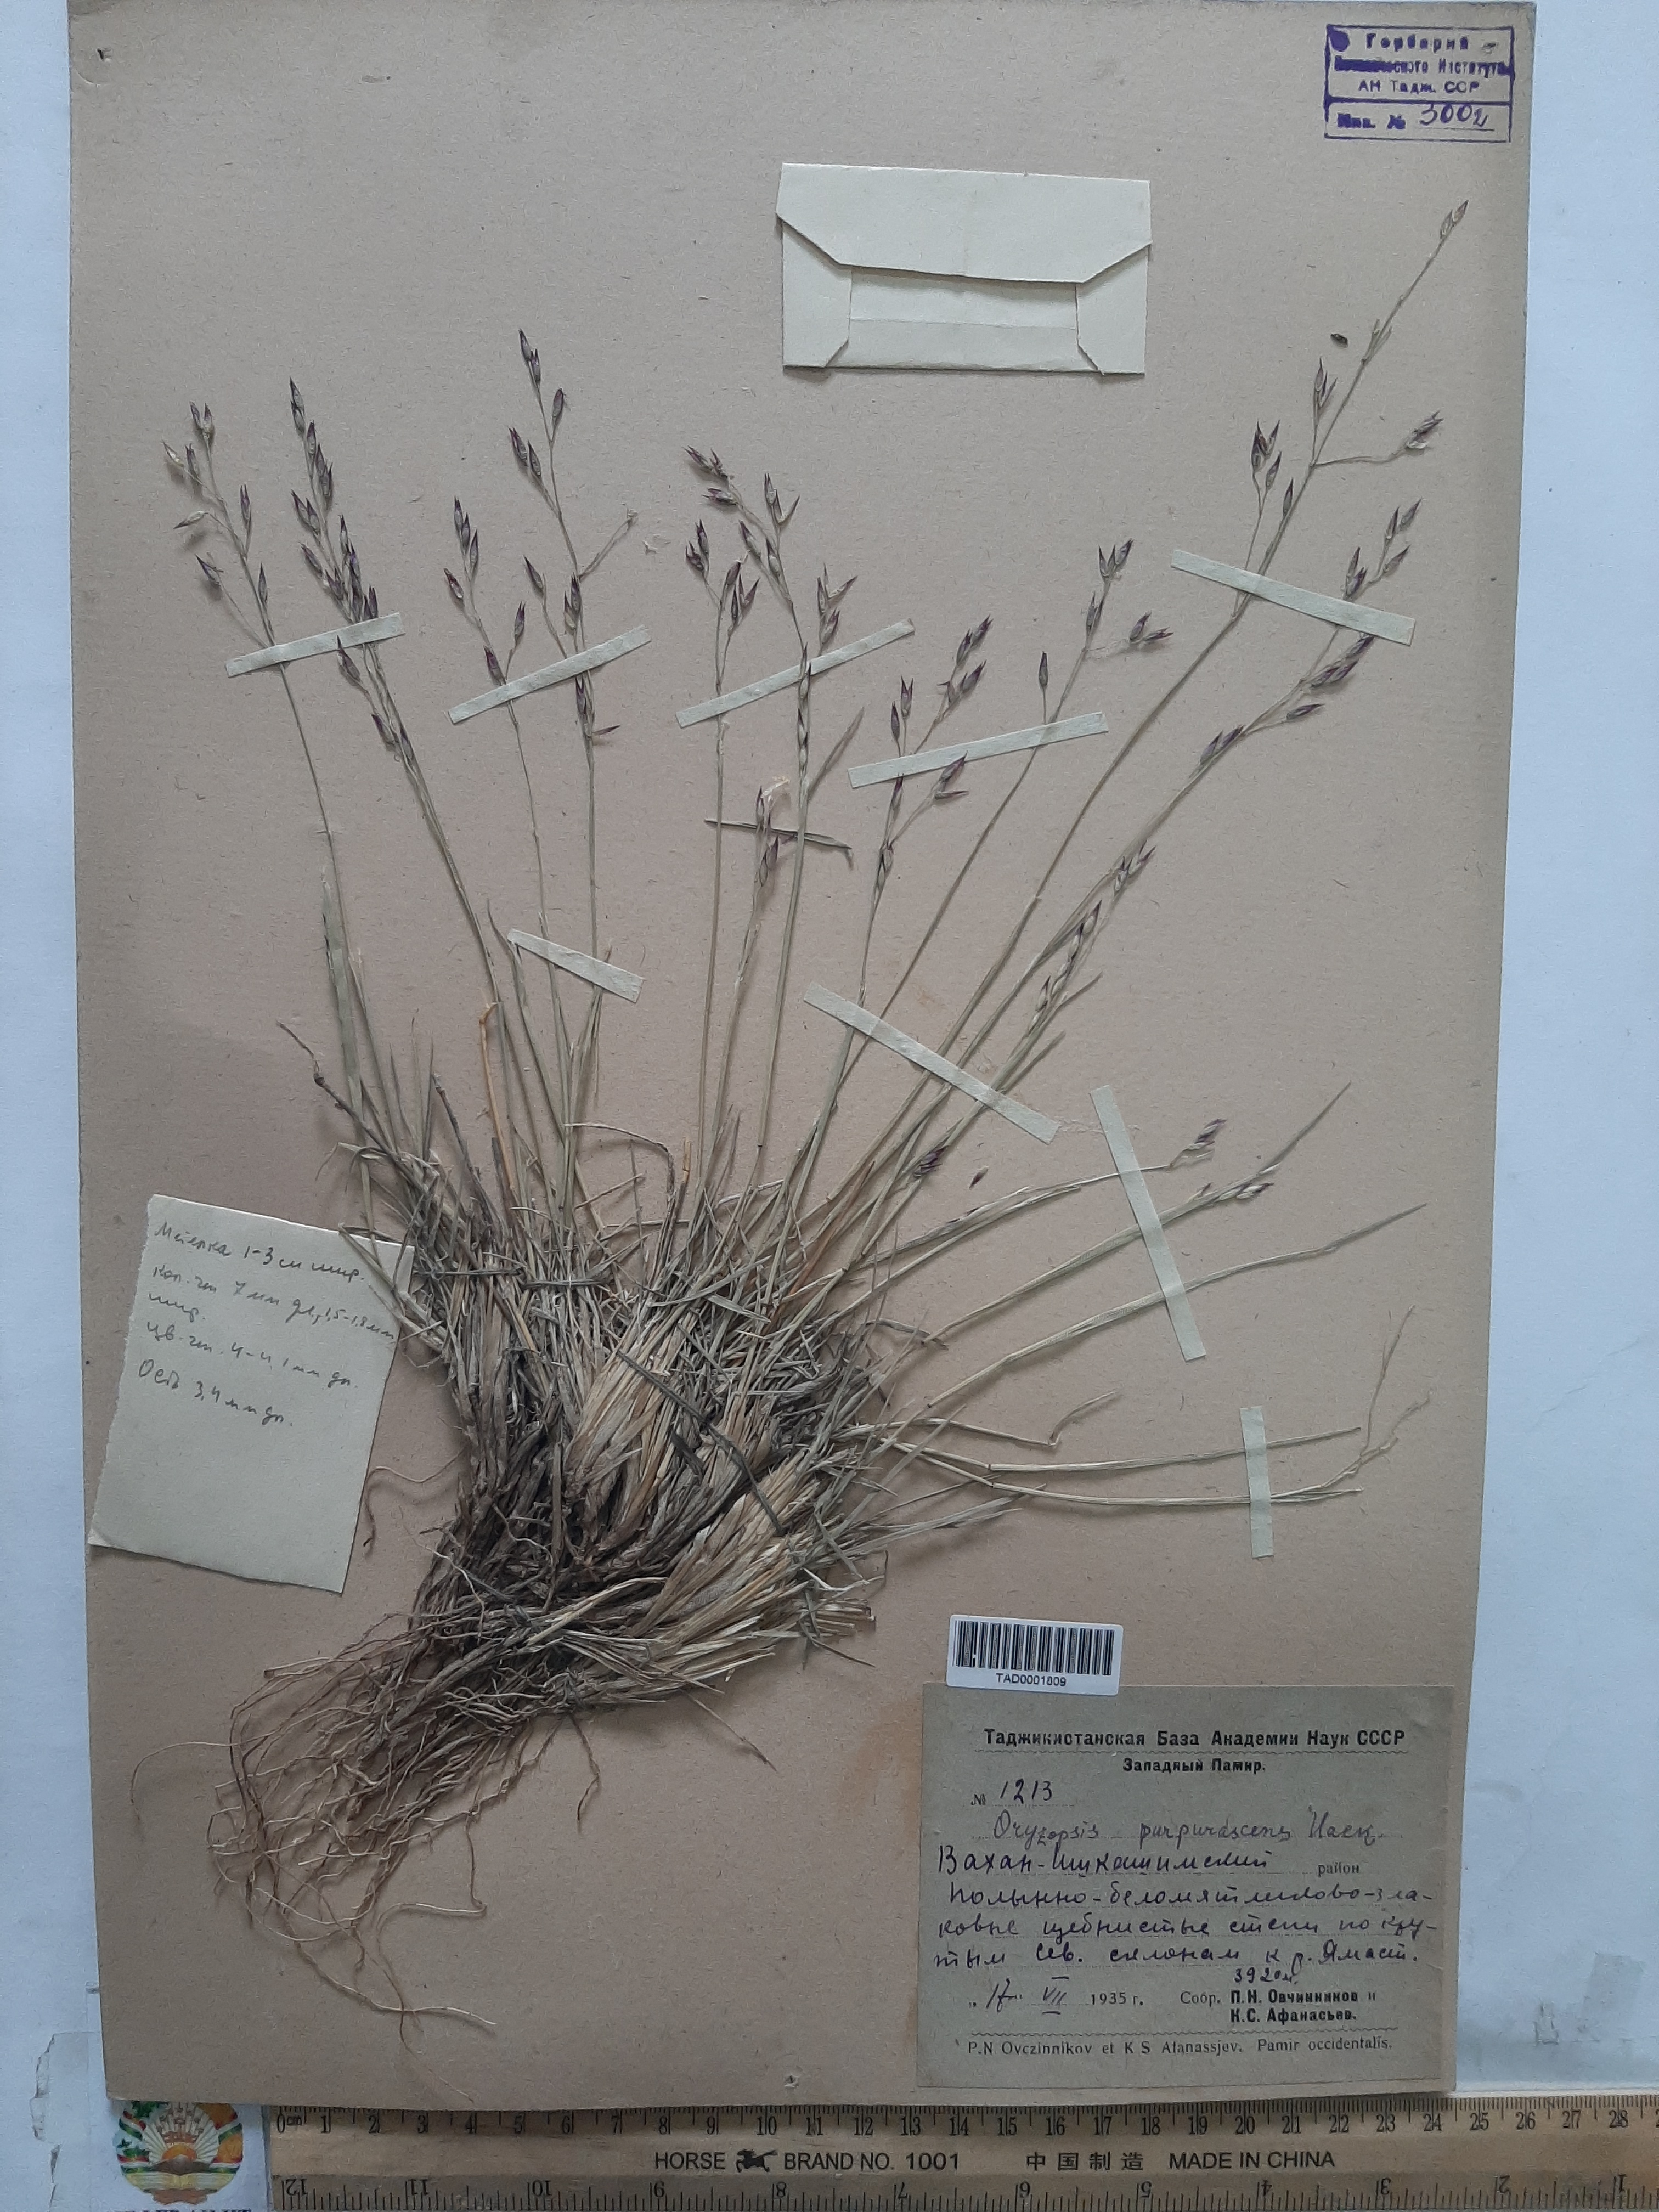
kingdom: Plantae
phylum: Tracheophyta
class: Liliopsida
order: Poales
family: Poaceae
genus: Piptatherum
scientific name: Piptatherum purpurascens
